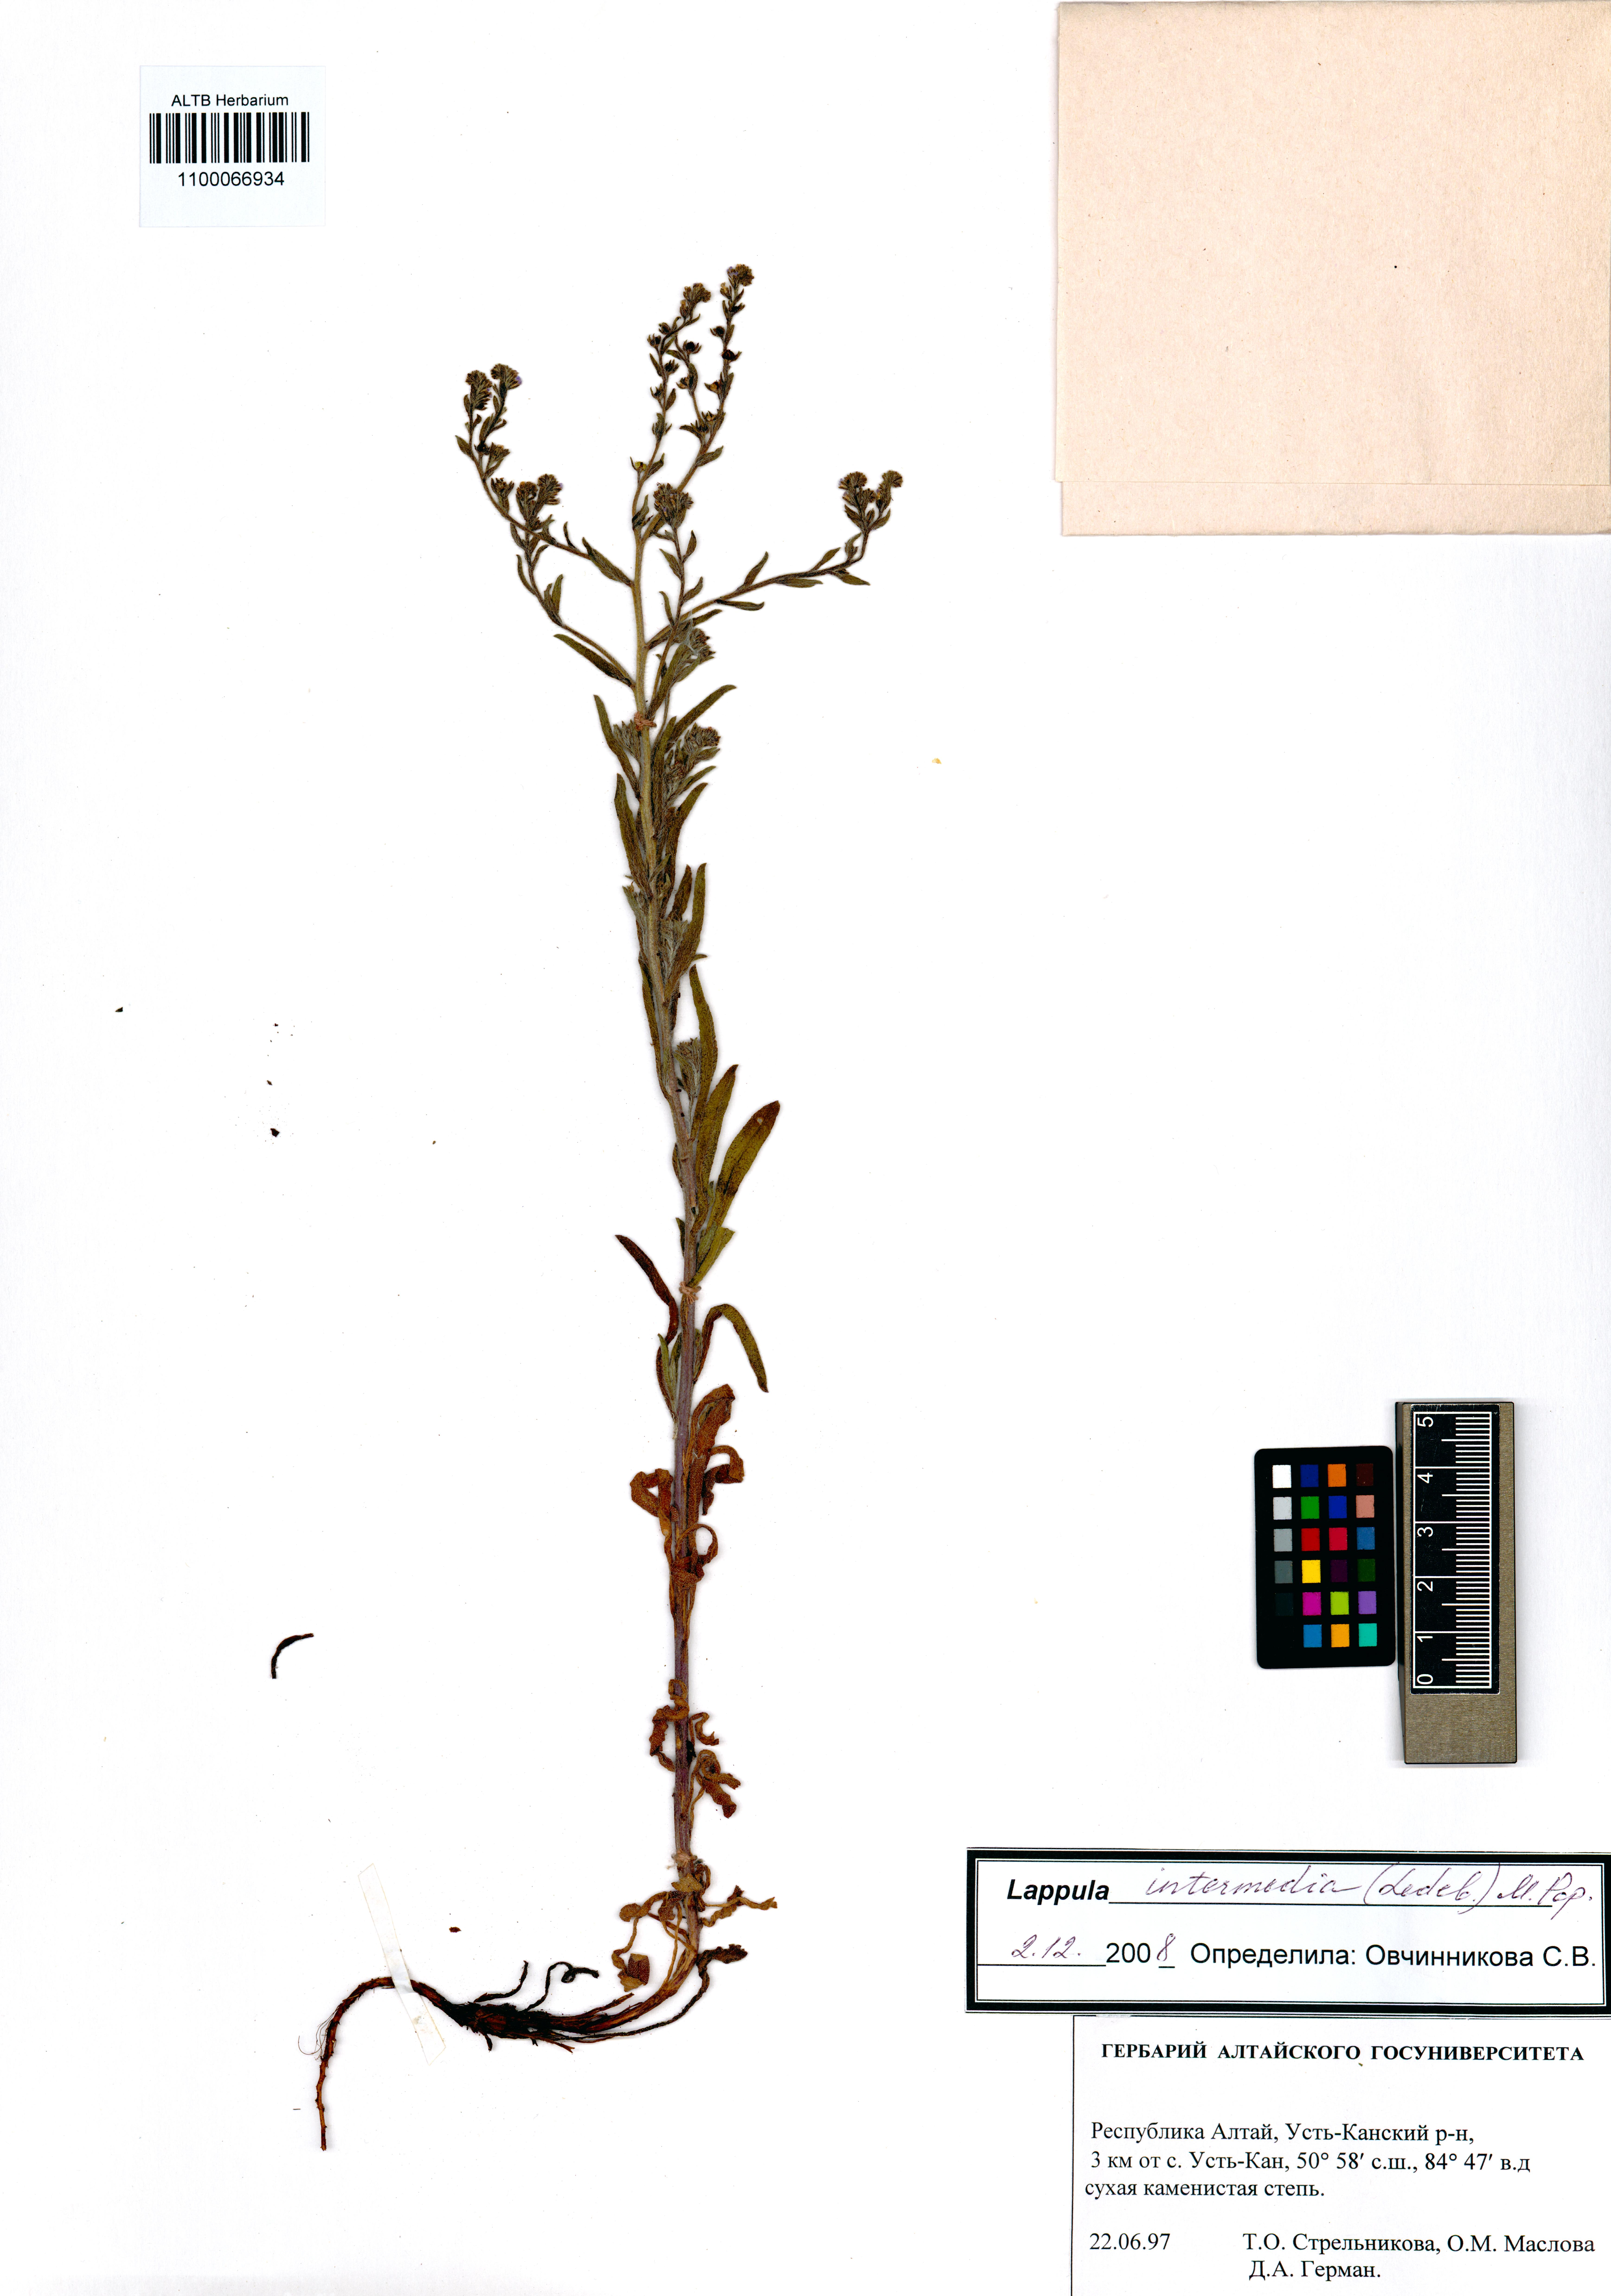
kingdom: Plantae
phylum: Tracheophyta
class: Magnoliopsida
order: Boraginales
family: Boraginaceae
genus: Lappula
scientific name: Lappula intermedia
